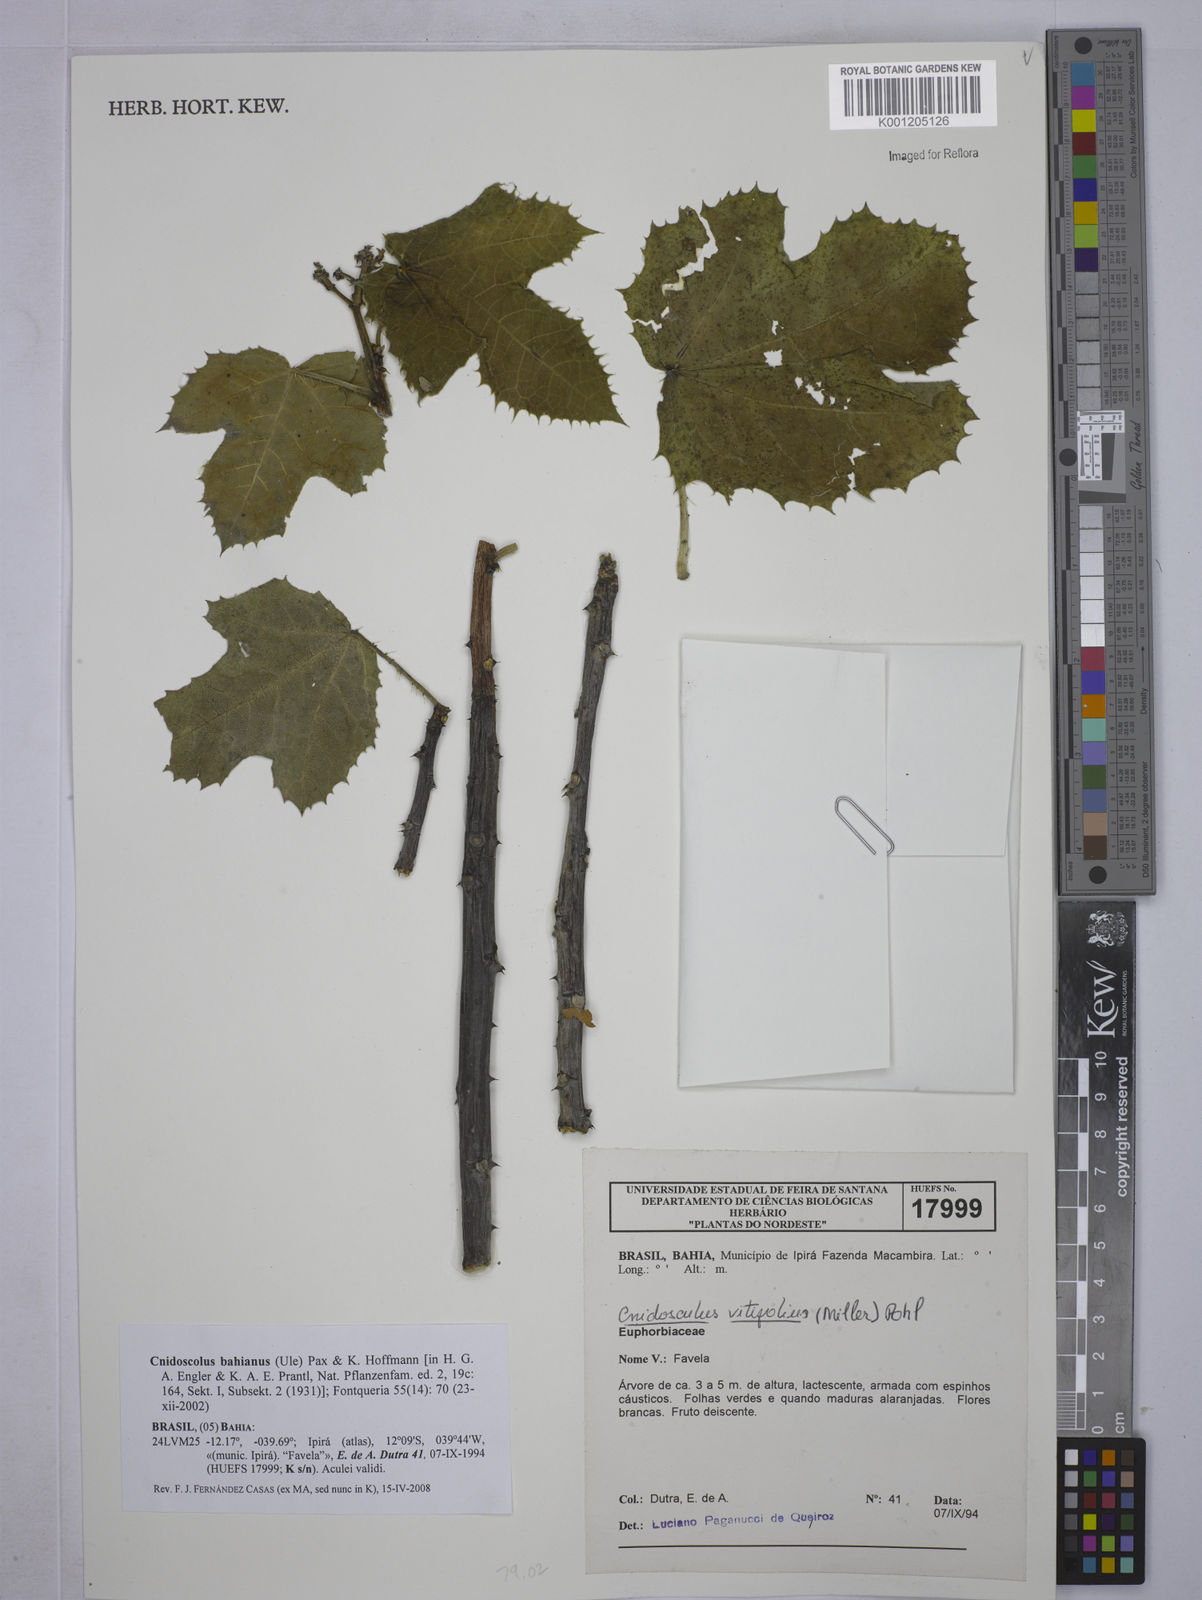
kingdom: Plantae
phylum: Tracheophyta
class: Magnoliopsida
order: Malpighiales
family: Euphorbiaceae
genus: Cnidoscolus
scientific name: Cnidoscolus bahianus
